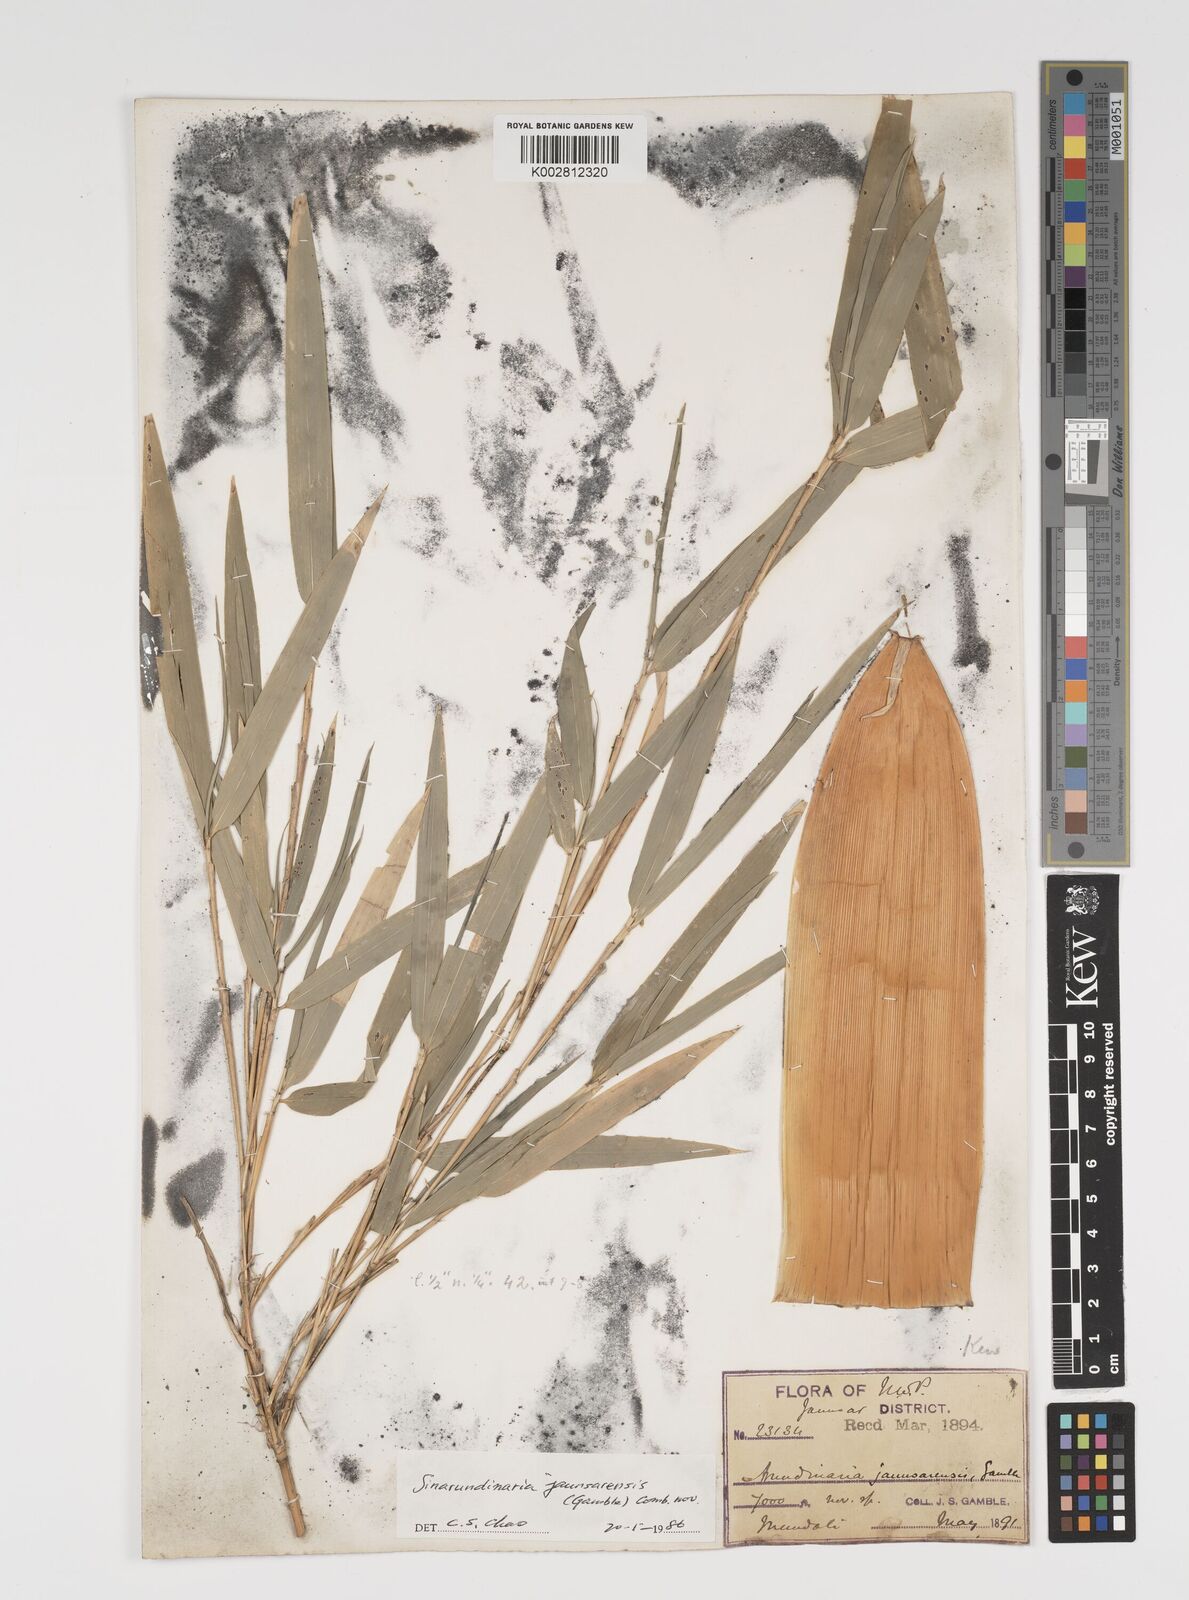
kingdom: Plantae
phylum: Tracheophyta
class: Liliopsida
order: Poales
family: Poaceae
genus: Yushania
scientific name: Yushania anceps
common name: Indian fountain-bamboo
